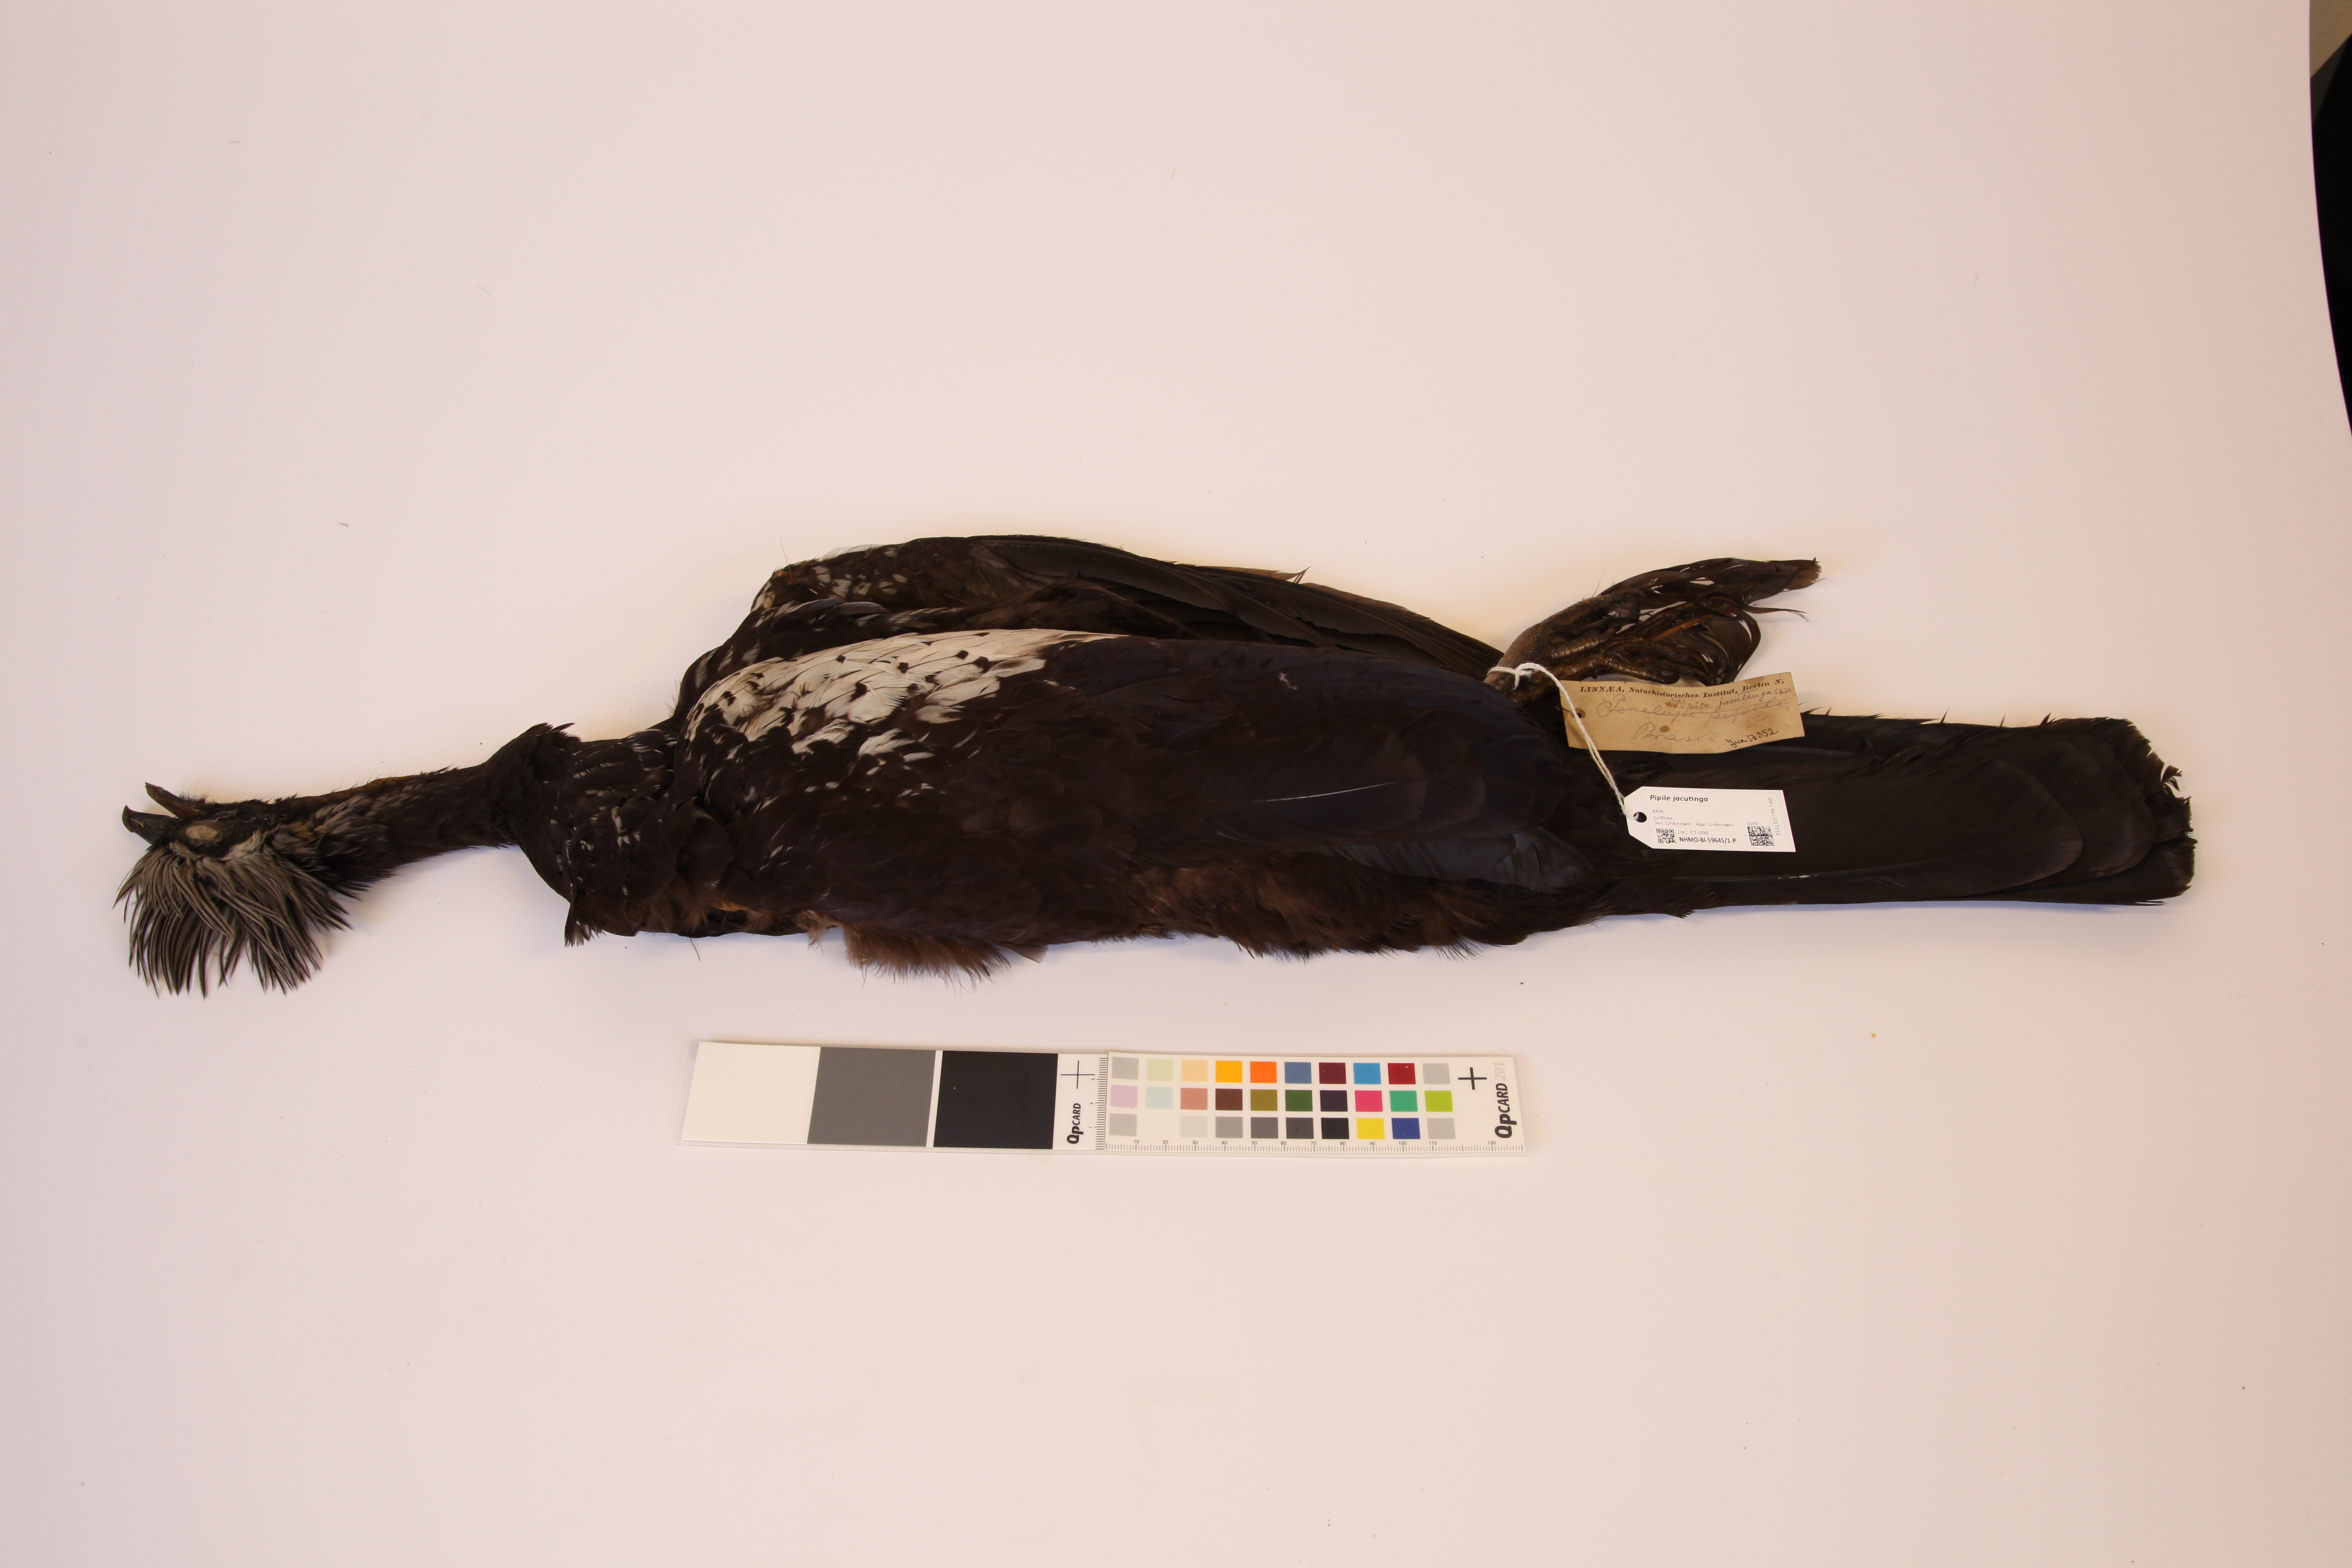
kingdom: Animalia
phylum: Chordata
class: Aves
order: Galliformes
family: Cracidae
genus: Pipile
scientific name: Pipile jacutinga
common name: Black-fronted piping-guan
